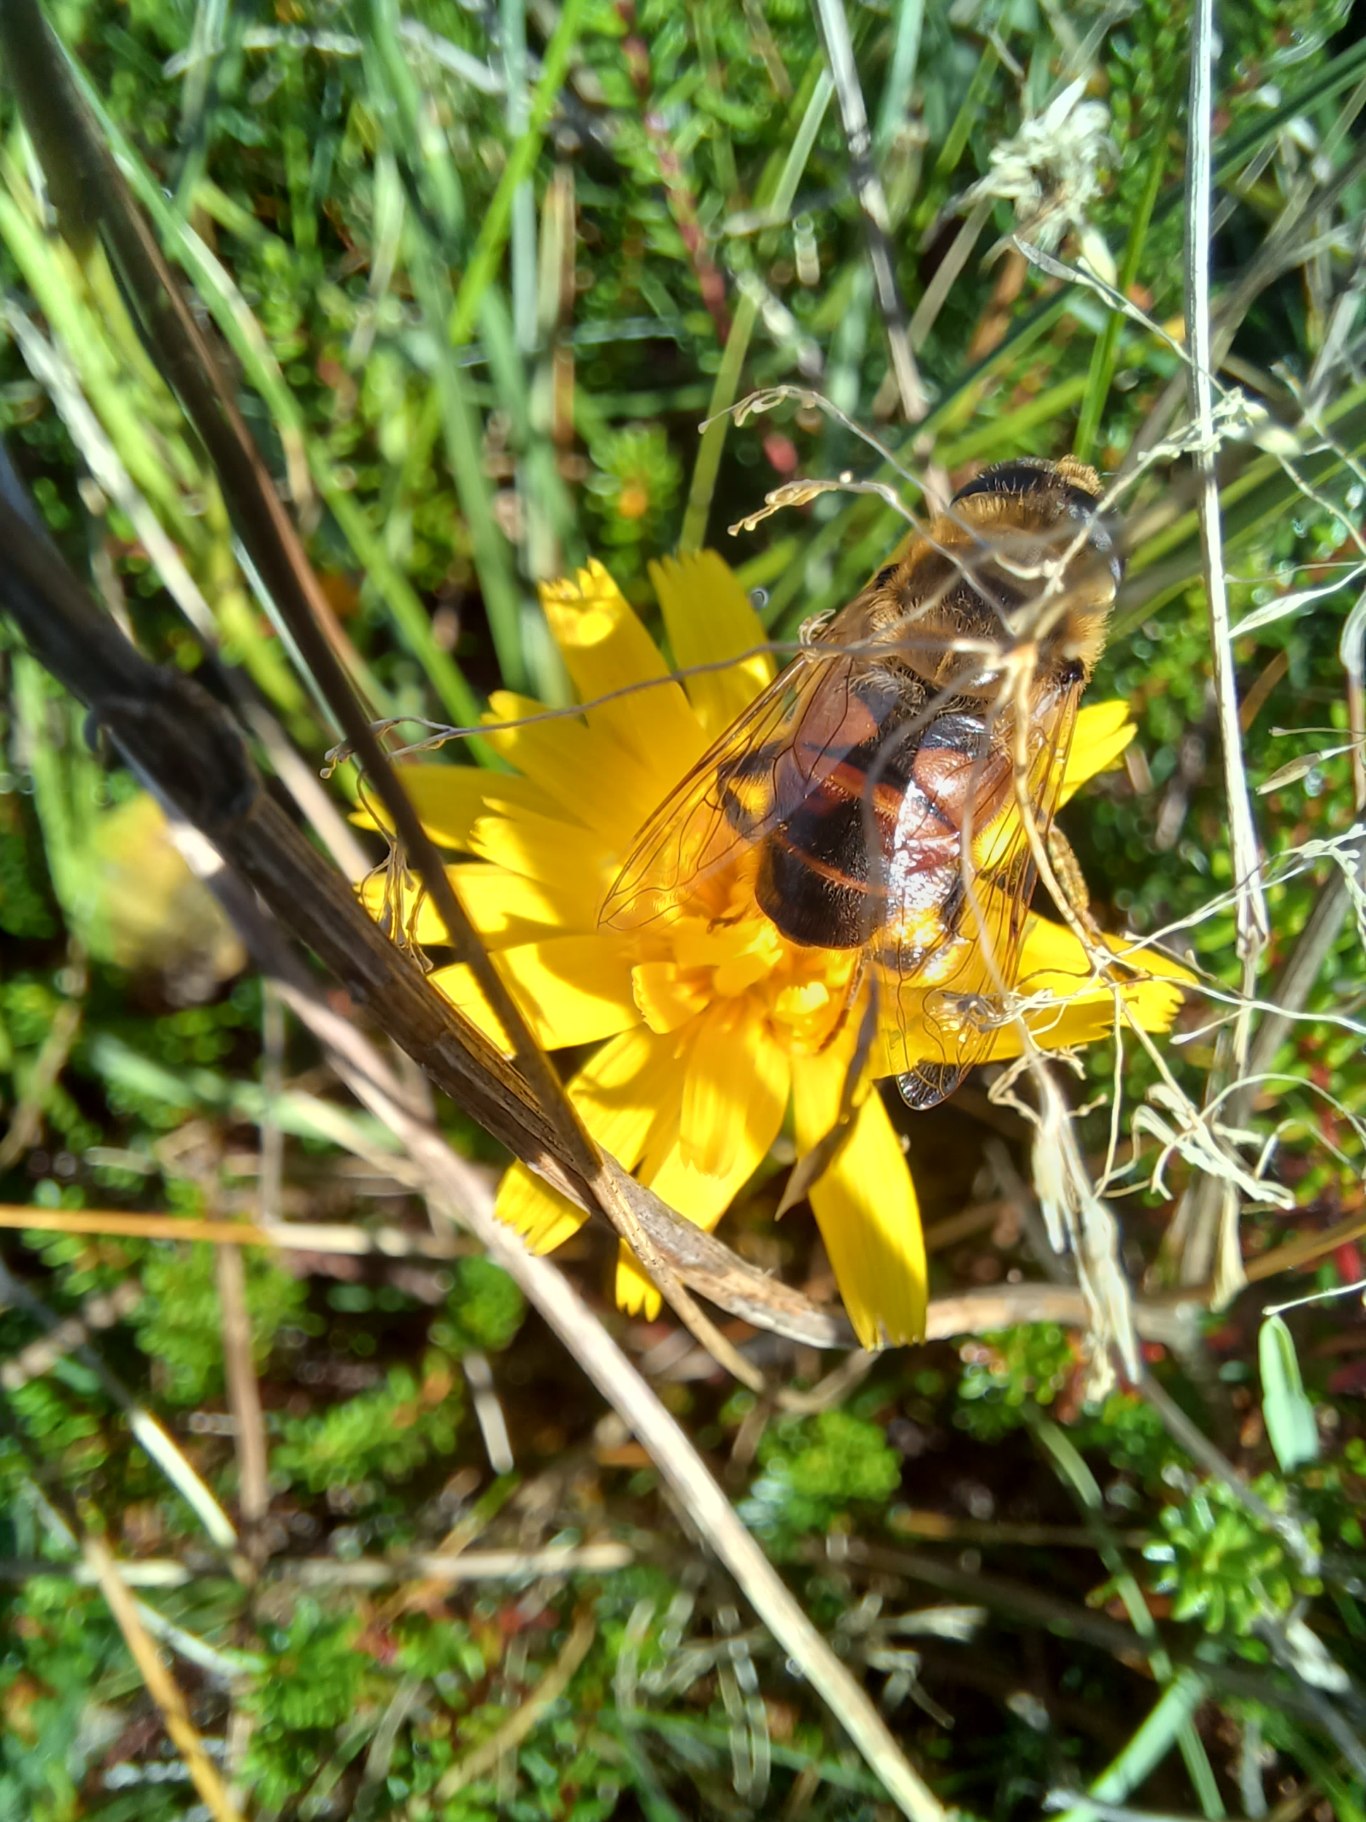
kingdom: Animalia
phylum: Arthropoda
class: Insecta
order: Diptera
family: Syrphidae
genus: Eristalis
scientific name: Eristalis tenax
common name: Droneflue
